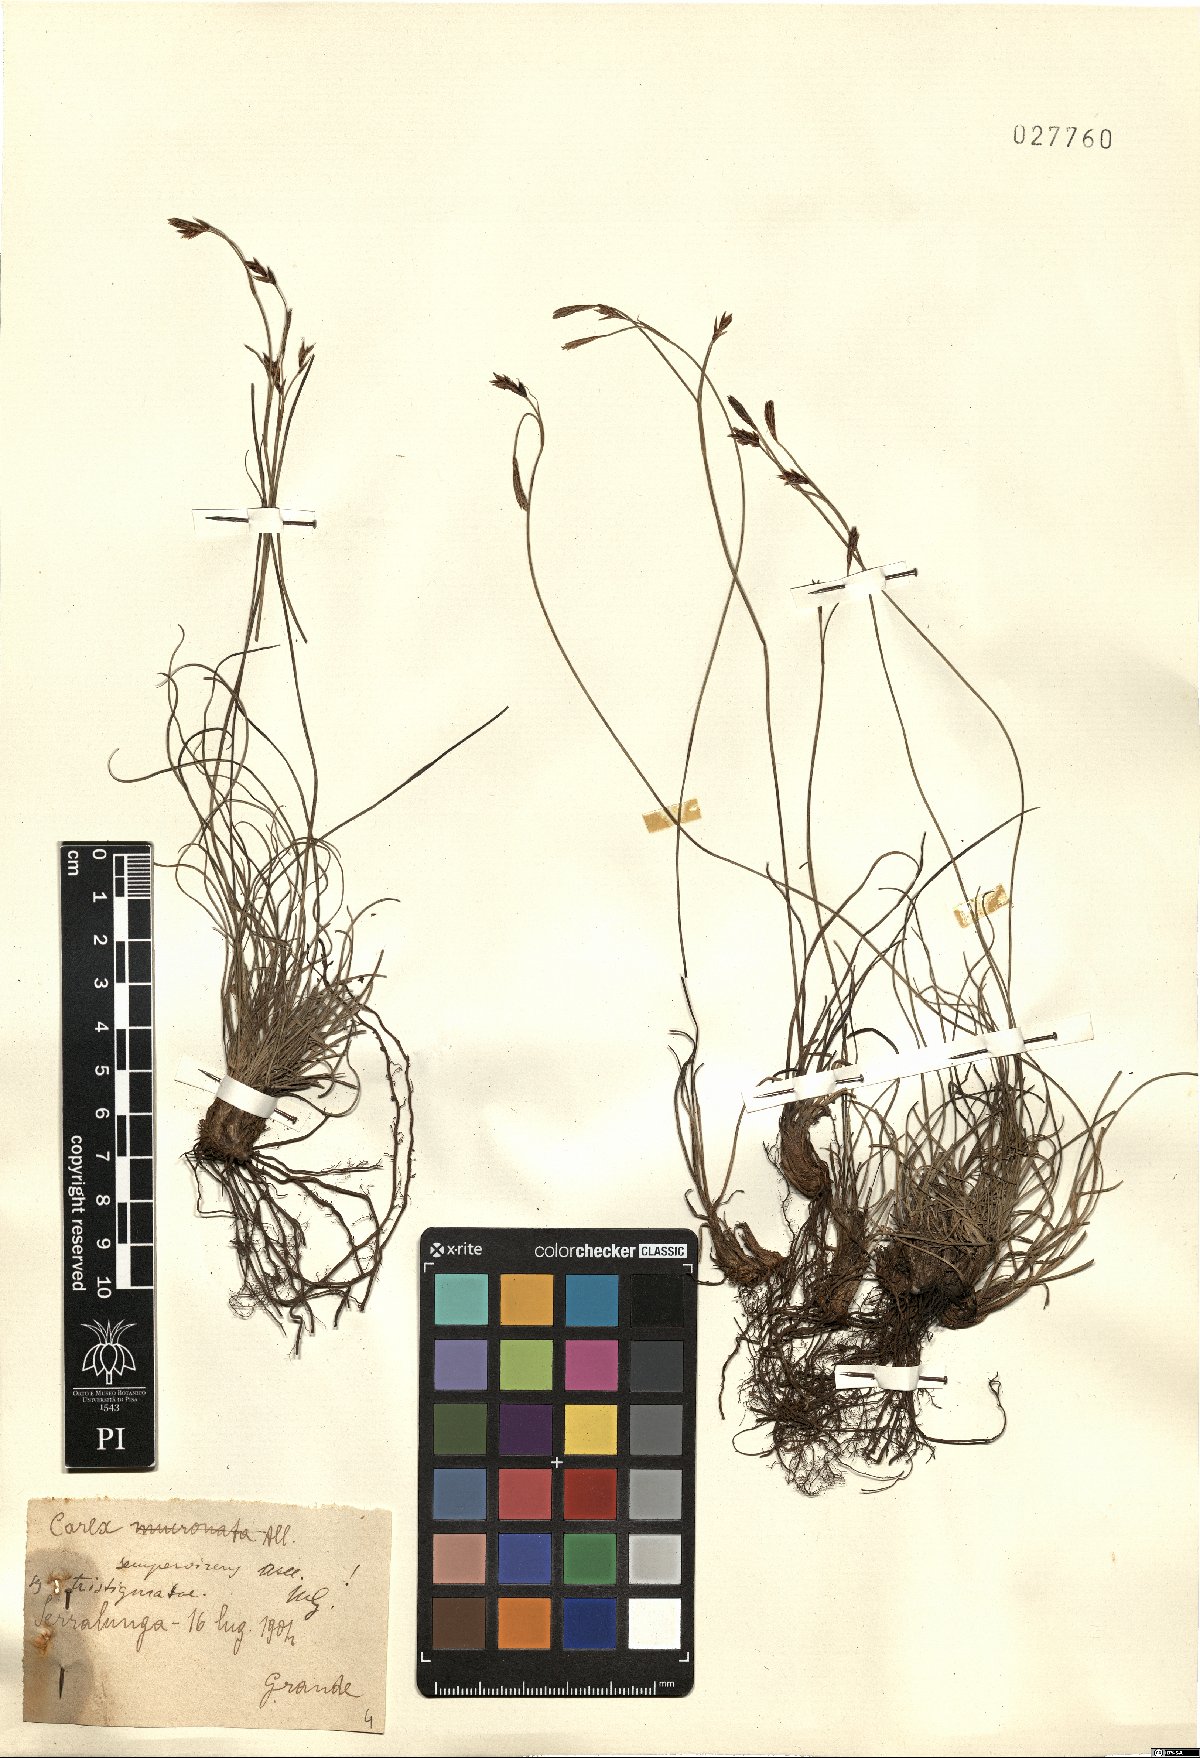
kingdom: Plantae
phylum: Tracheophyta
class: Liliopsida
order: Poales
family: Cyperaceae
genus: Carex
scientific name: Carex sempervirens
